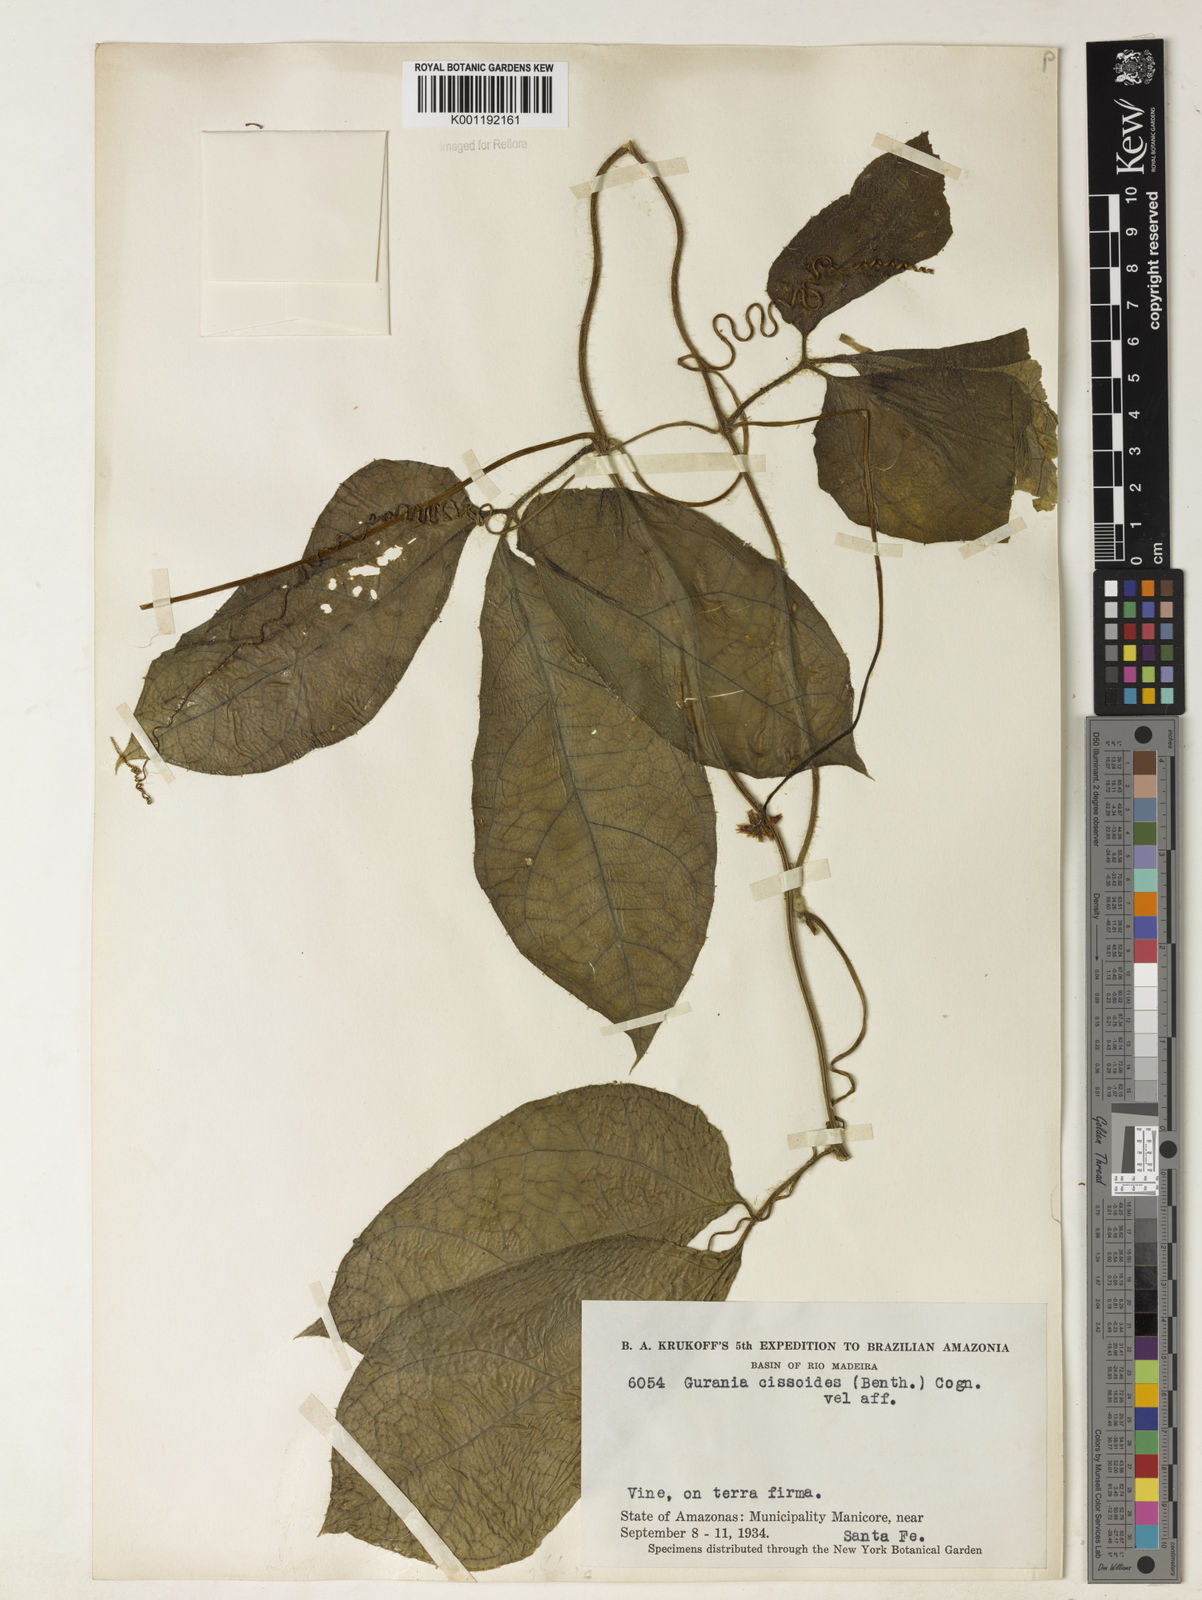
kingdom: Plantae
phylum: Tracheophyta
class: Magnoliopsida
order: Cucurbitales
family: Cucurbitaceae
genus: Gurania
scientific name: Gurania bignoniacea
